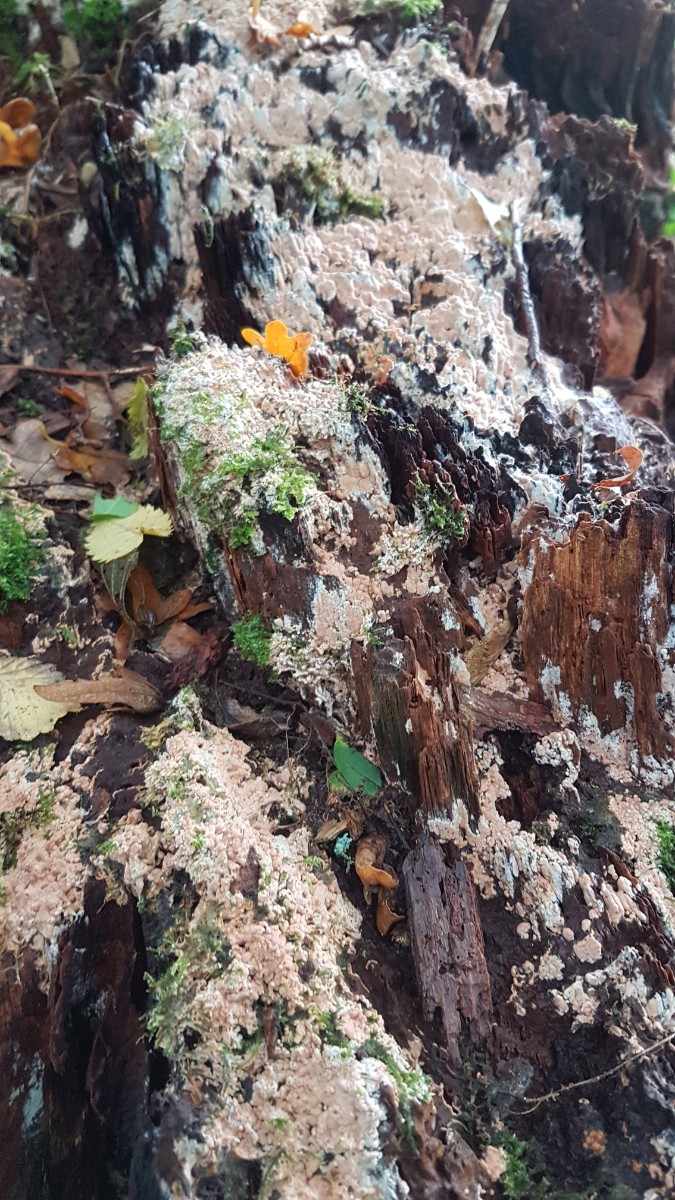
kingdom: Fungi
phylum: Basidiomycota
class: Agaricomycetes
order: Russulales
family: Peniophoraceae
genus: Gloiothele
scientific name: Gloiothele lactescens
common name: bitter olieskind
